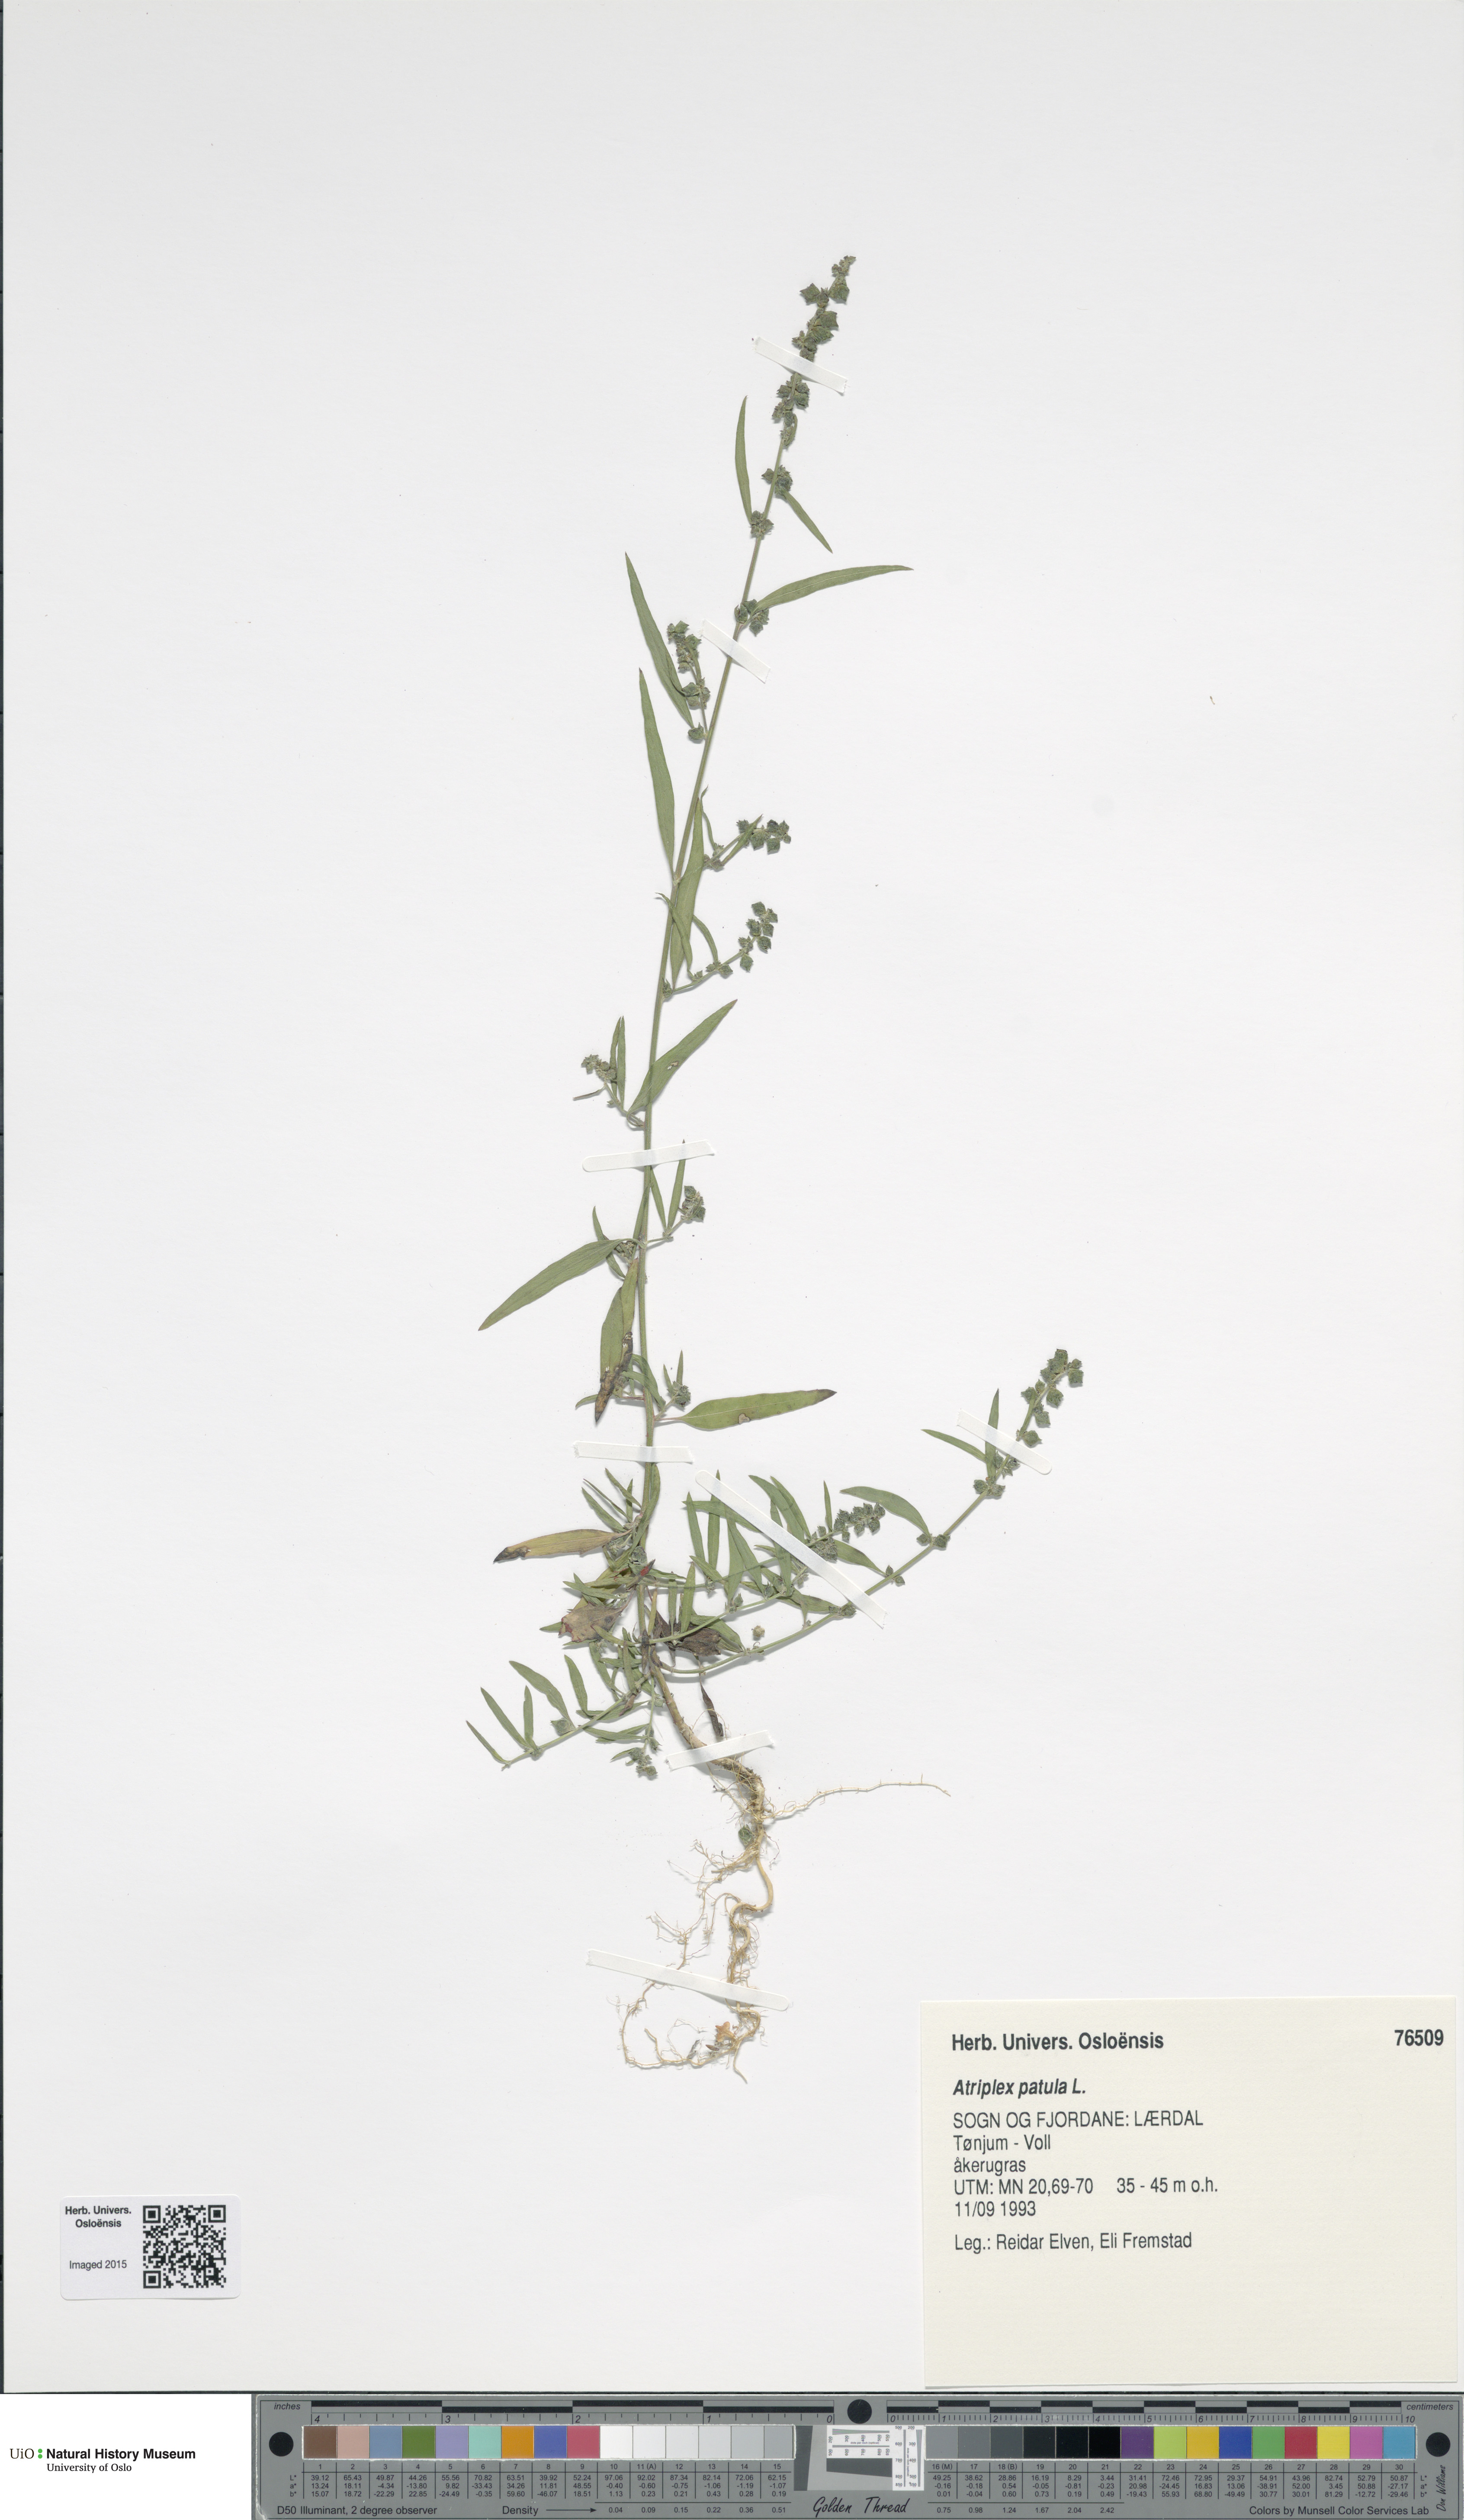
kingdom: Plantae
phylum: Tracheophyta
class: Magnoliopsida
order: Caryophyllales
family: Amaranthaceae
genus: Atriplex
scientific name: Atriplex patula
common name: Common orache
